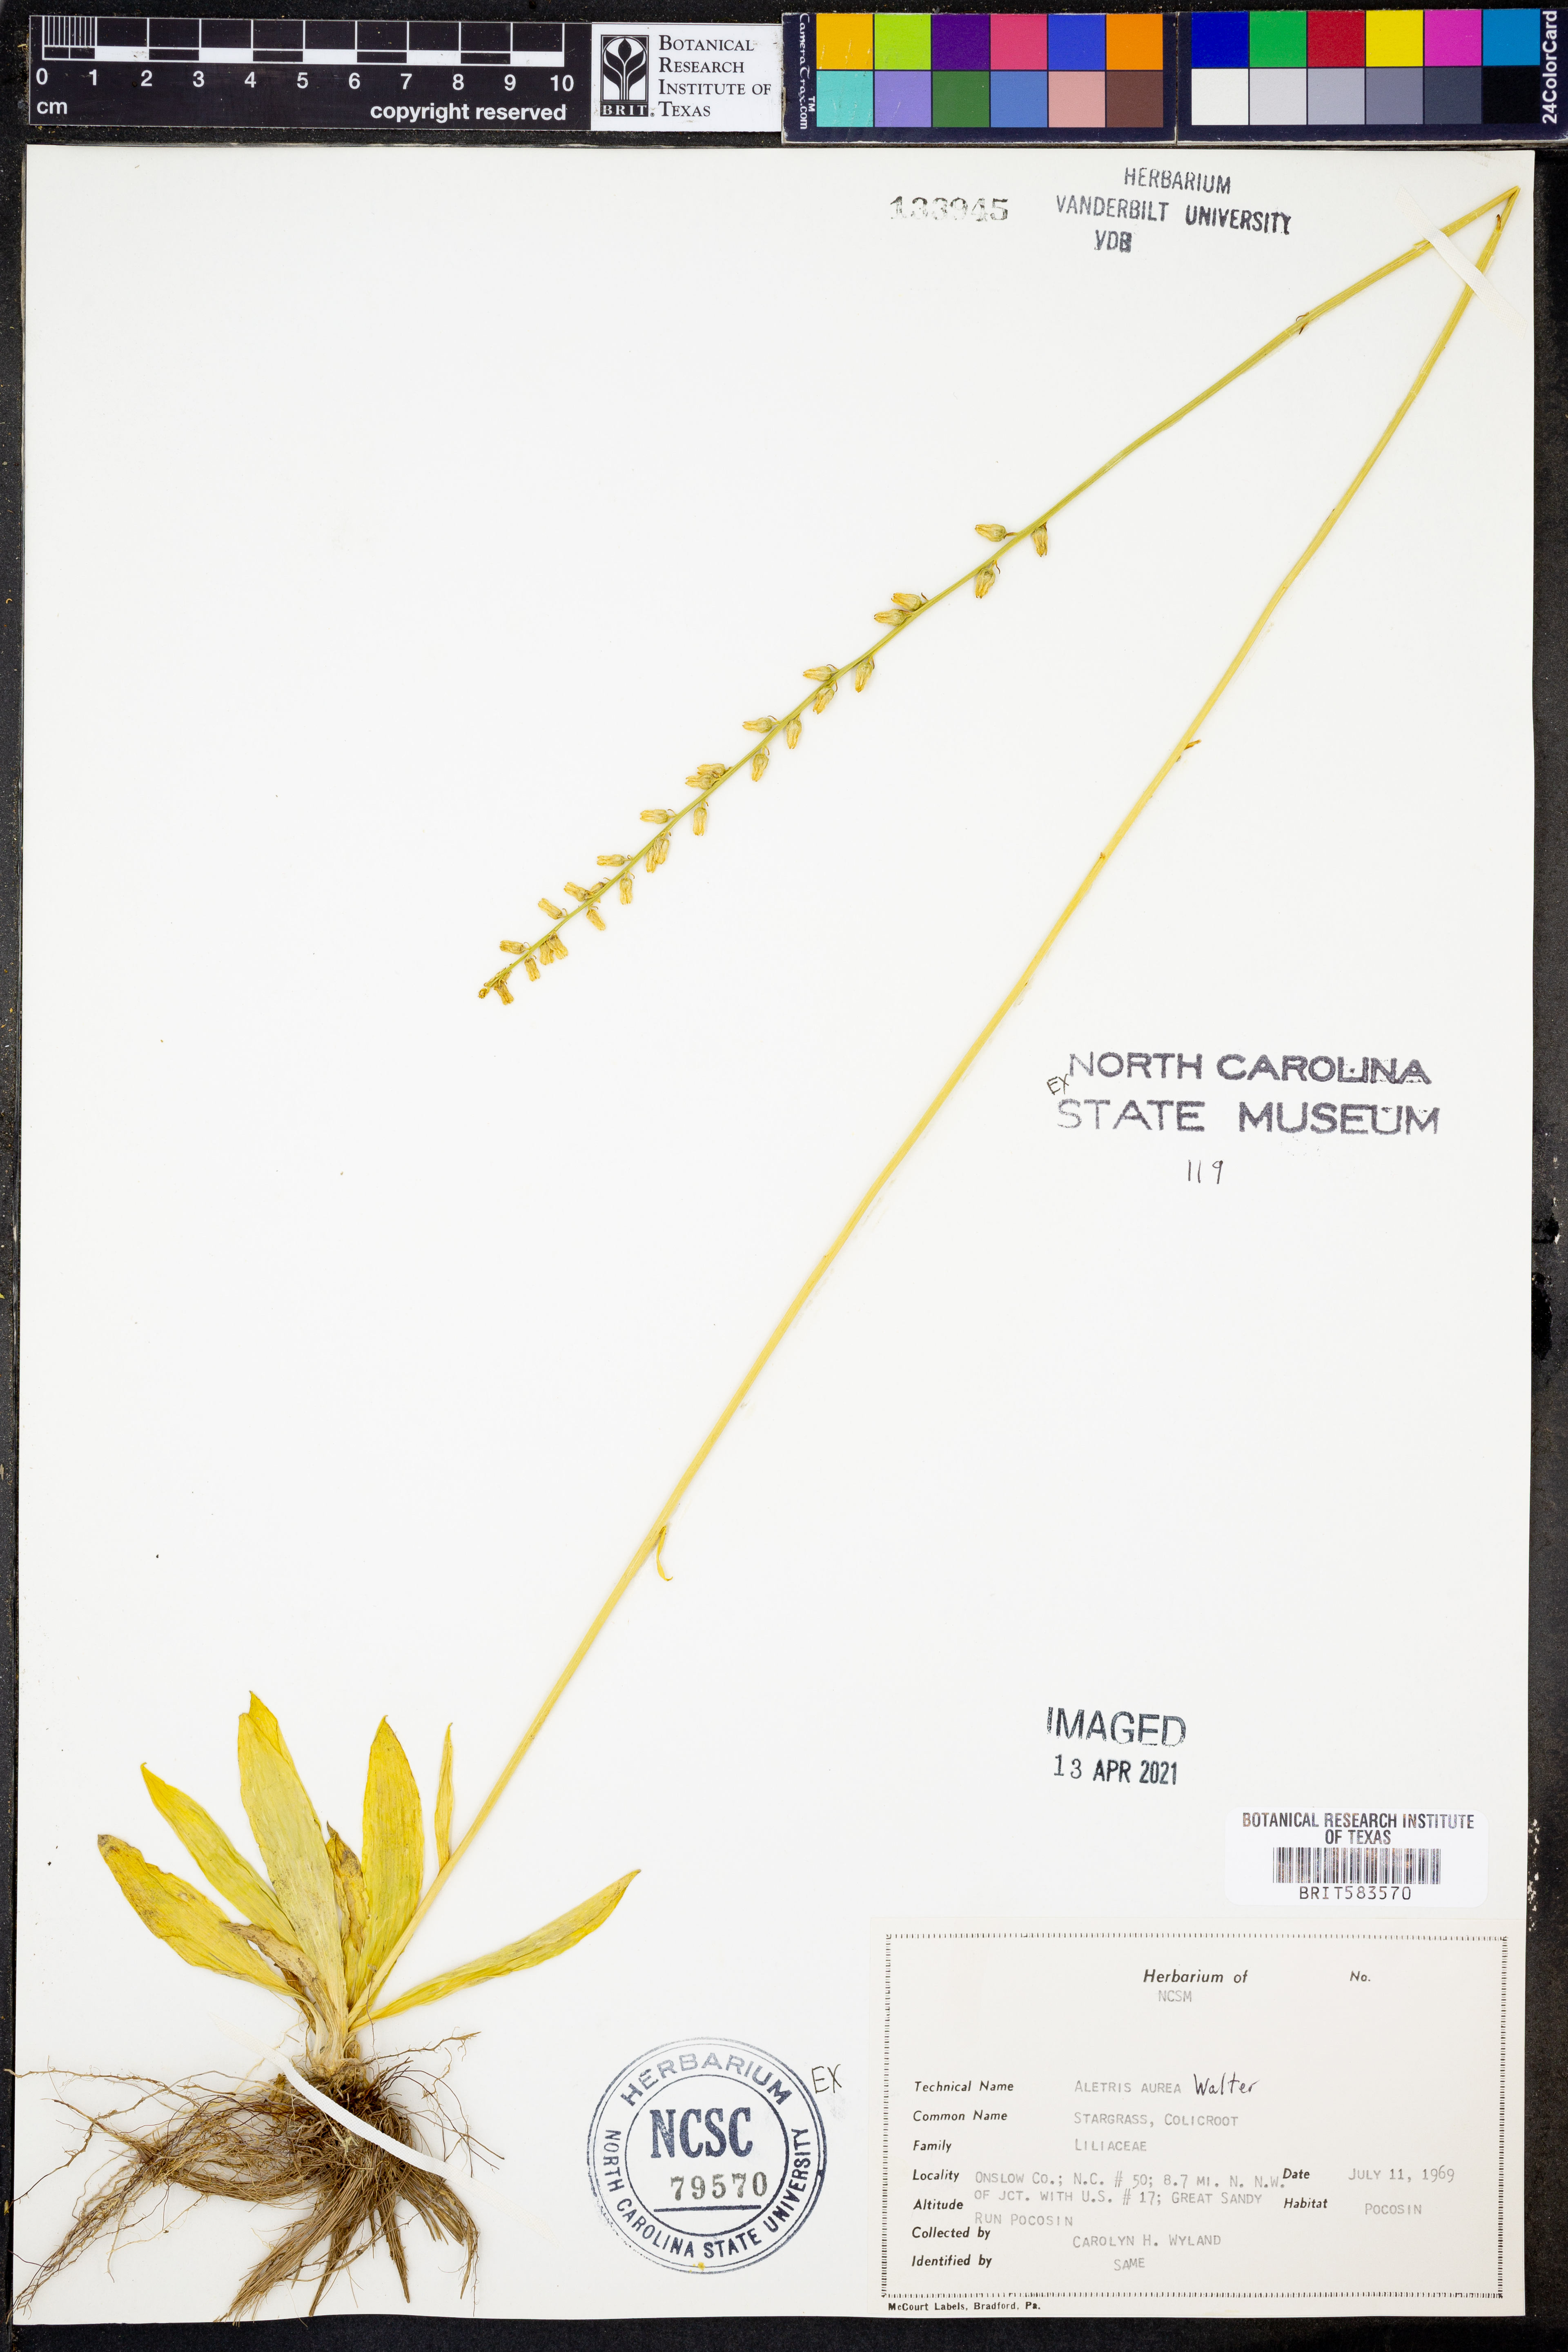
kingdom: Plantae
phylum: Tracheophyta
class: Liliopsida
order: Dioscoreales
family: Nartheciaceae
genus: Aletris
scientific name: Aletris aurea
